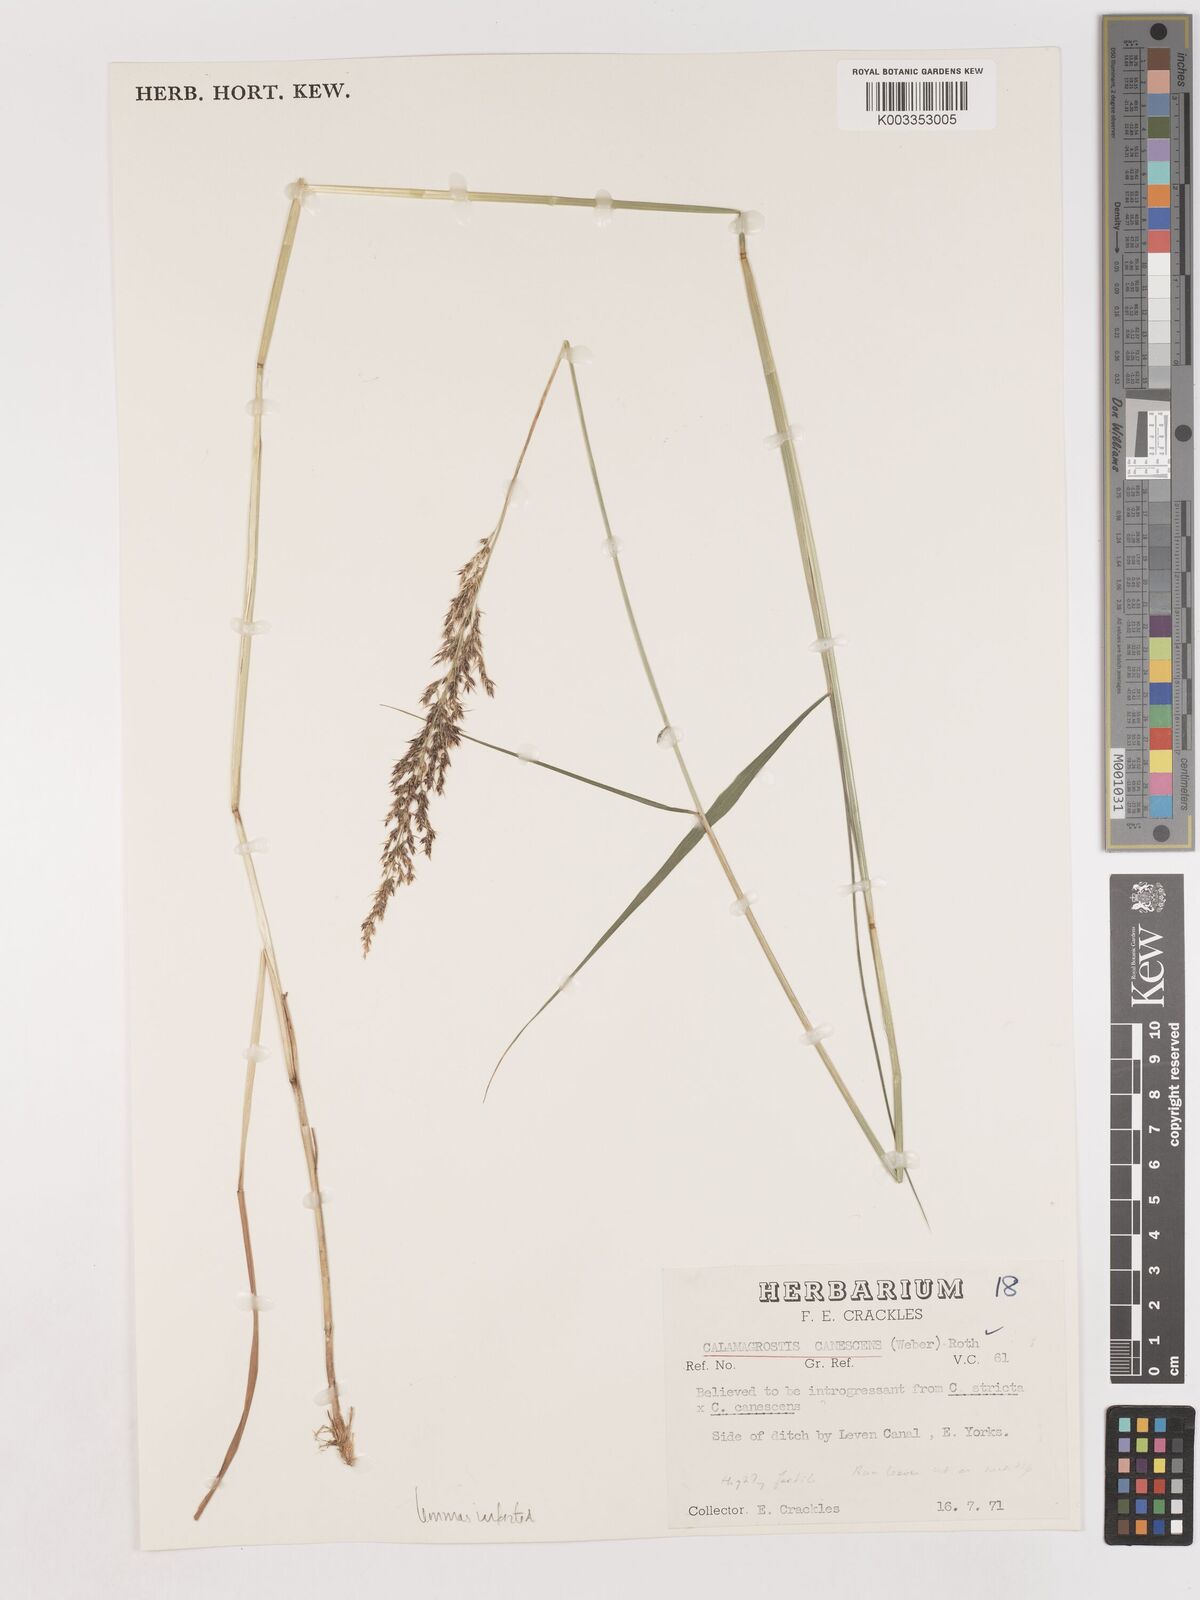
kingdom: Plantae
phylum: Tracheophyta
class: Liliopsida
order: Poales
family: Poaceae
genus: Calamagrostis
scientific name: Calamagrostis canescens
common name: Purple small-reed
